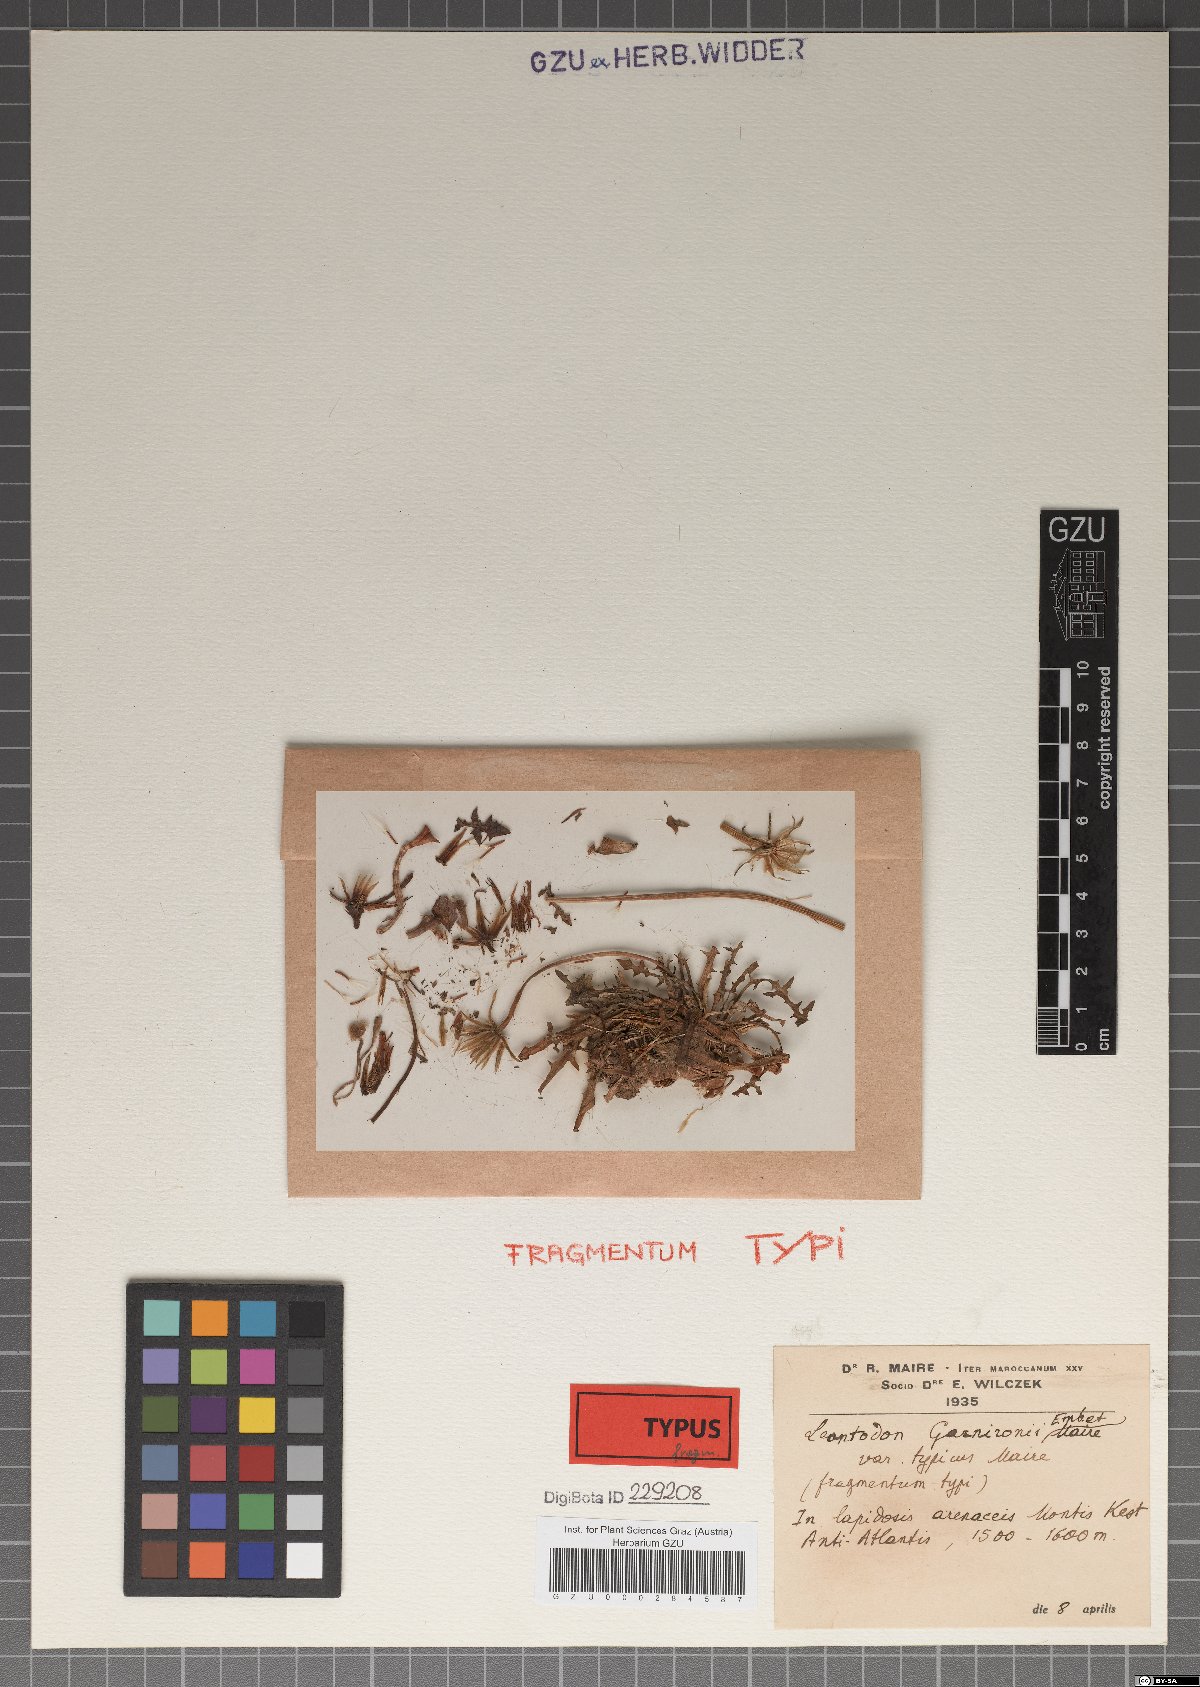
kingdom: Plantae
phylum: Tracheophyta
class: Magnoliopsida
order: Asterales
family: Asteraceae
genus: Scorzoneroides
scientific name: Scorzoneroides garnironii
